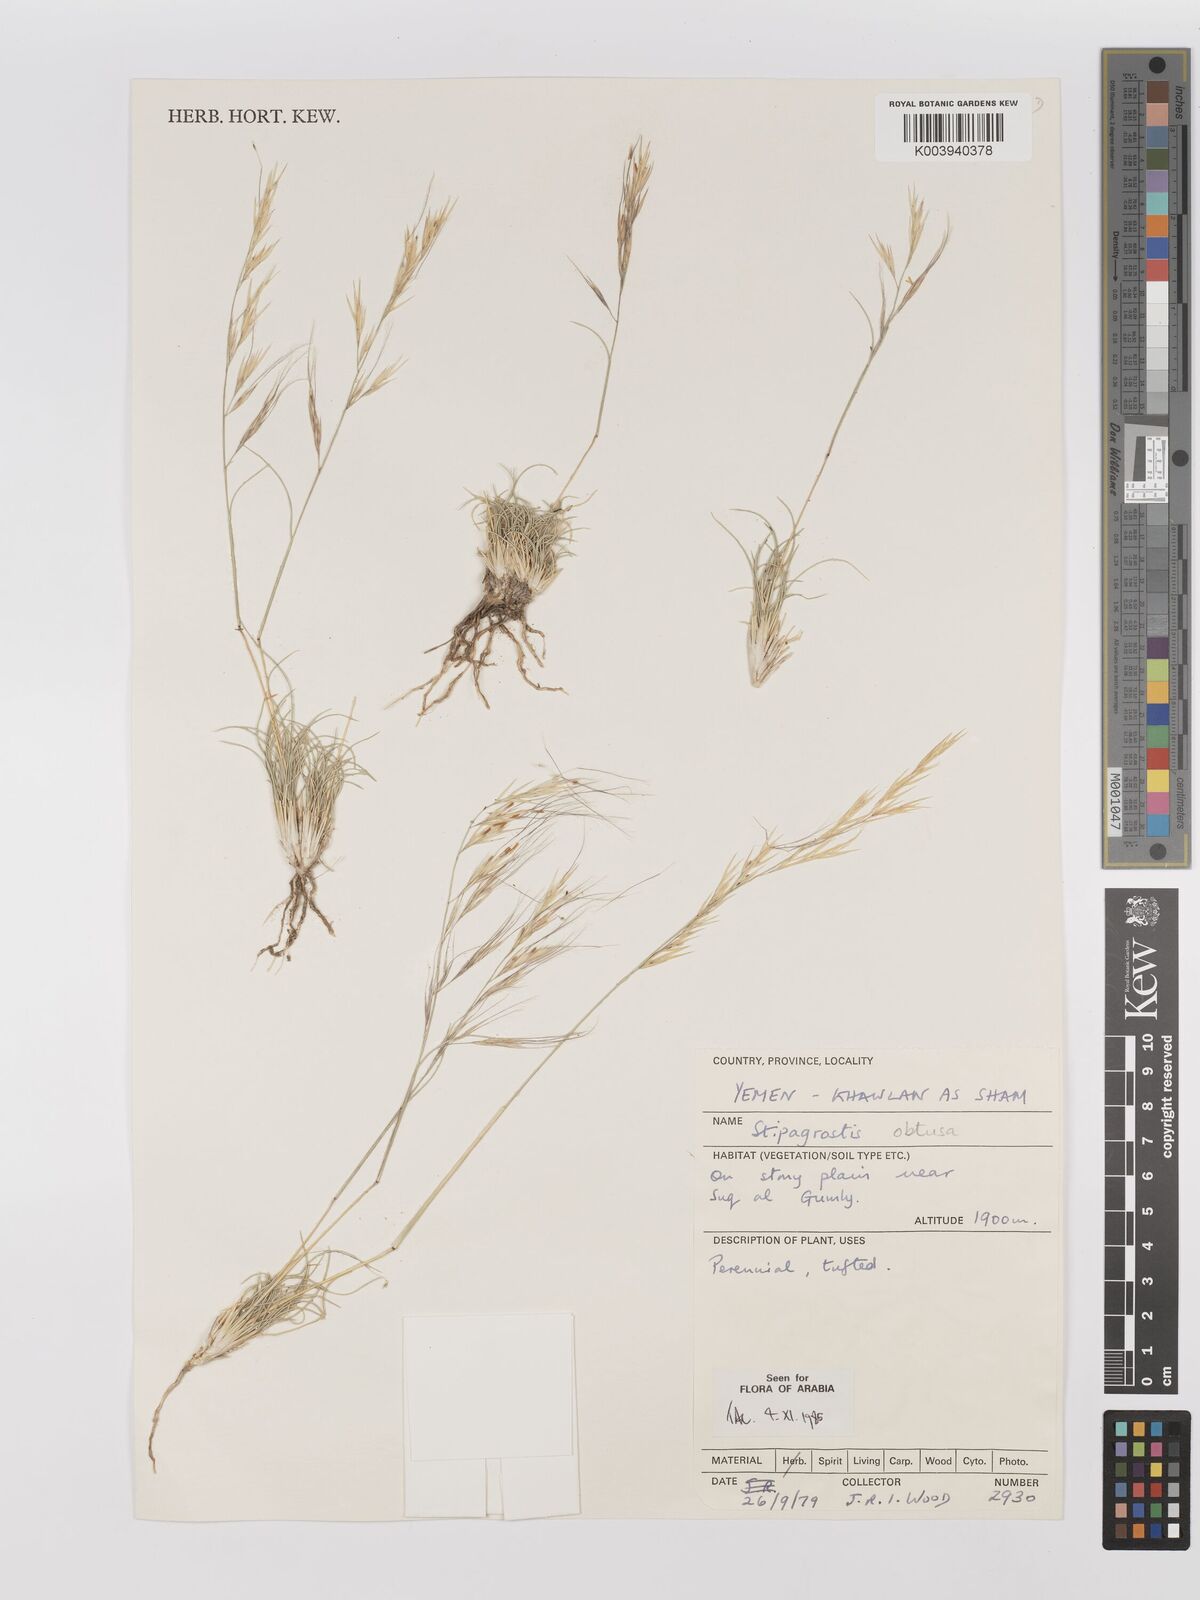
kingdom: Plantae
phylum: Tracheophyta
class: Liliopsida
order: Poales
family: Poaceae
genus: Stipagrostis
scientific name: Stipagrostis obtusa
